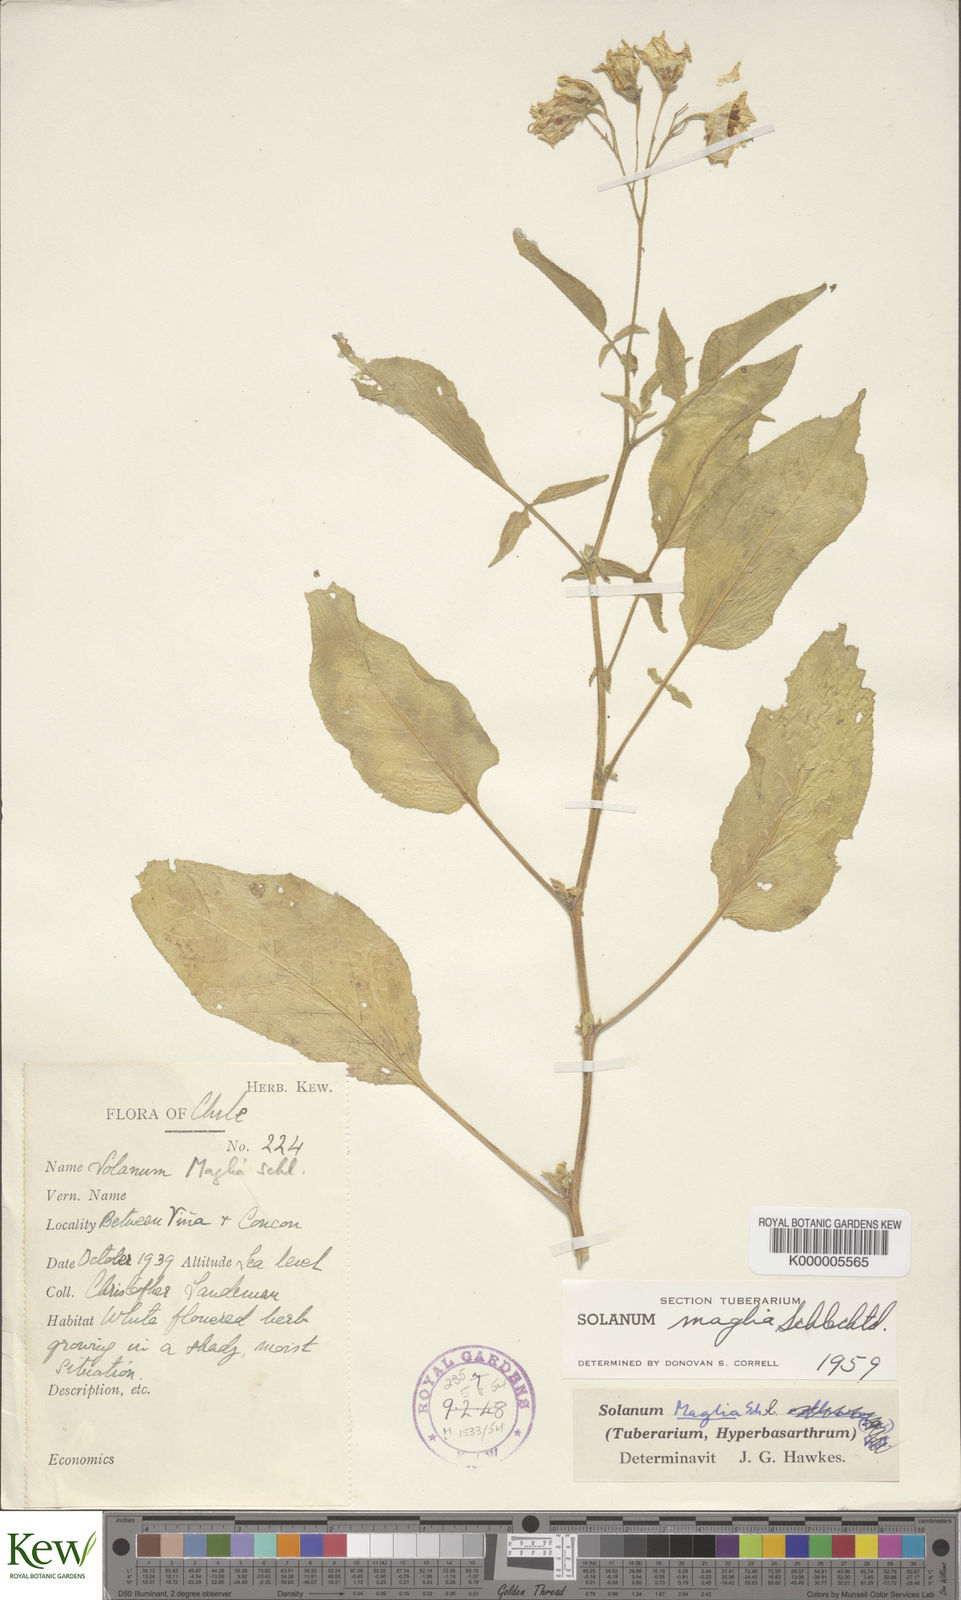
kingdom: Plantae
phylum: Tracheophyta
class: Magnoliopsida
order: Solanales
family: Solanaceae
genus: Solanum
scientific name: Solanum maglia
